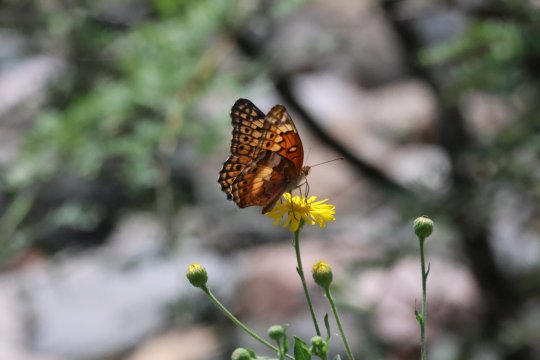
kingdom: Animalia
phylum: Arthropoda
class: Insecta
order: Lepidoptera
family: Nymphalidae
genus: Euptoieta
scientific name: Euptoieta claudia
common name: Variegated Fritillary
